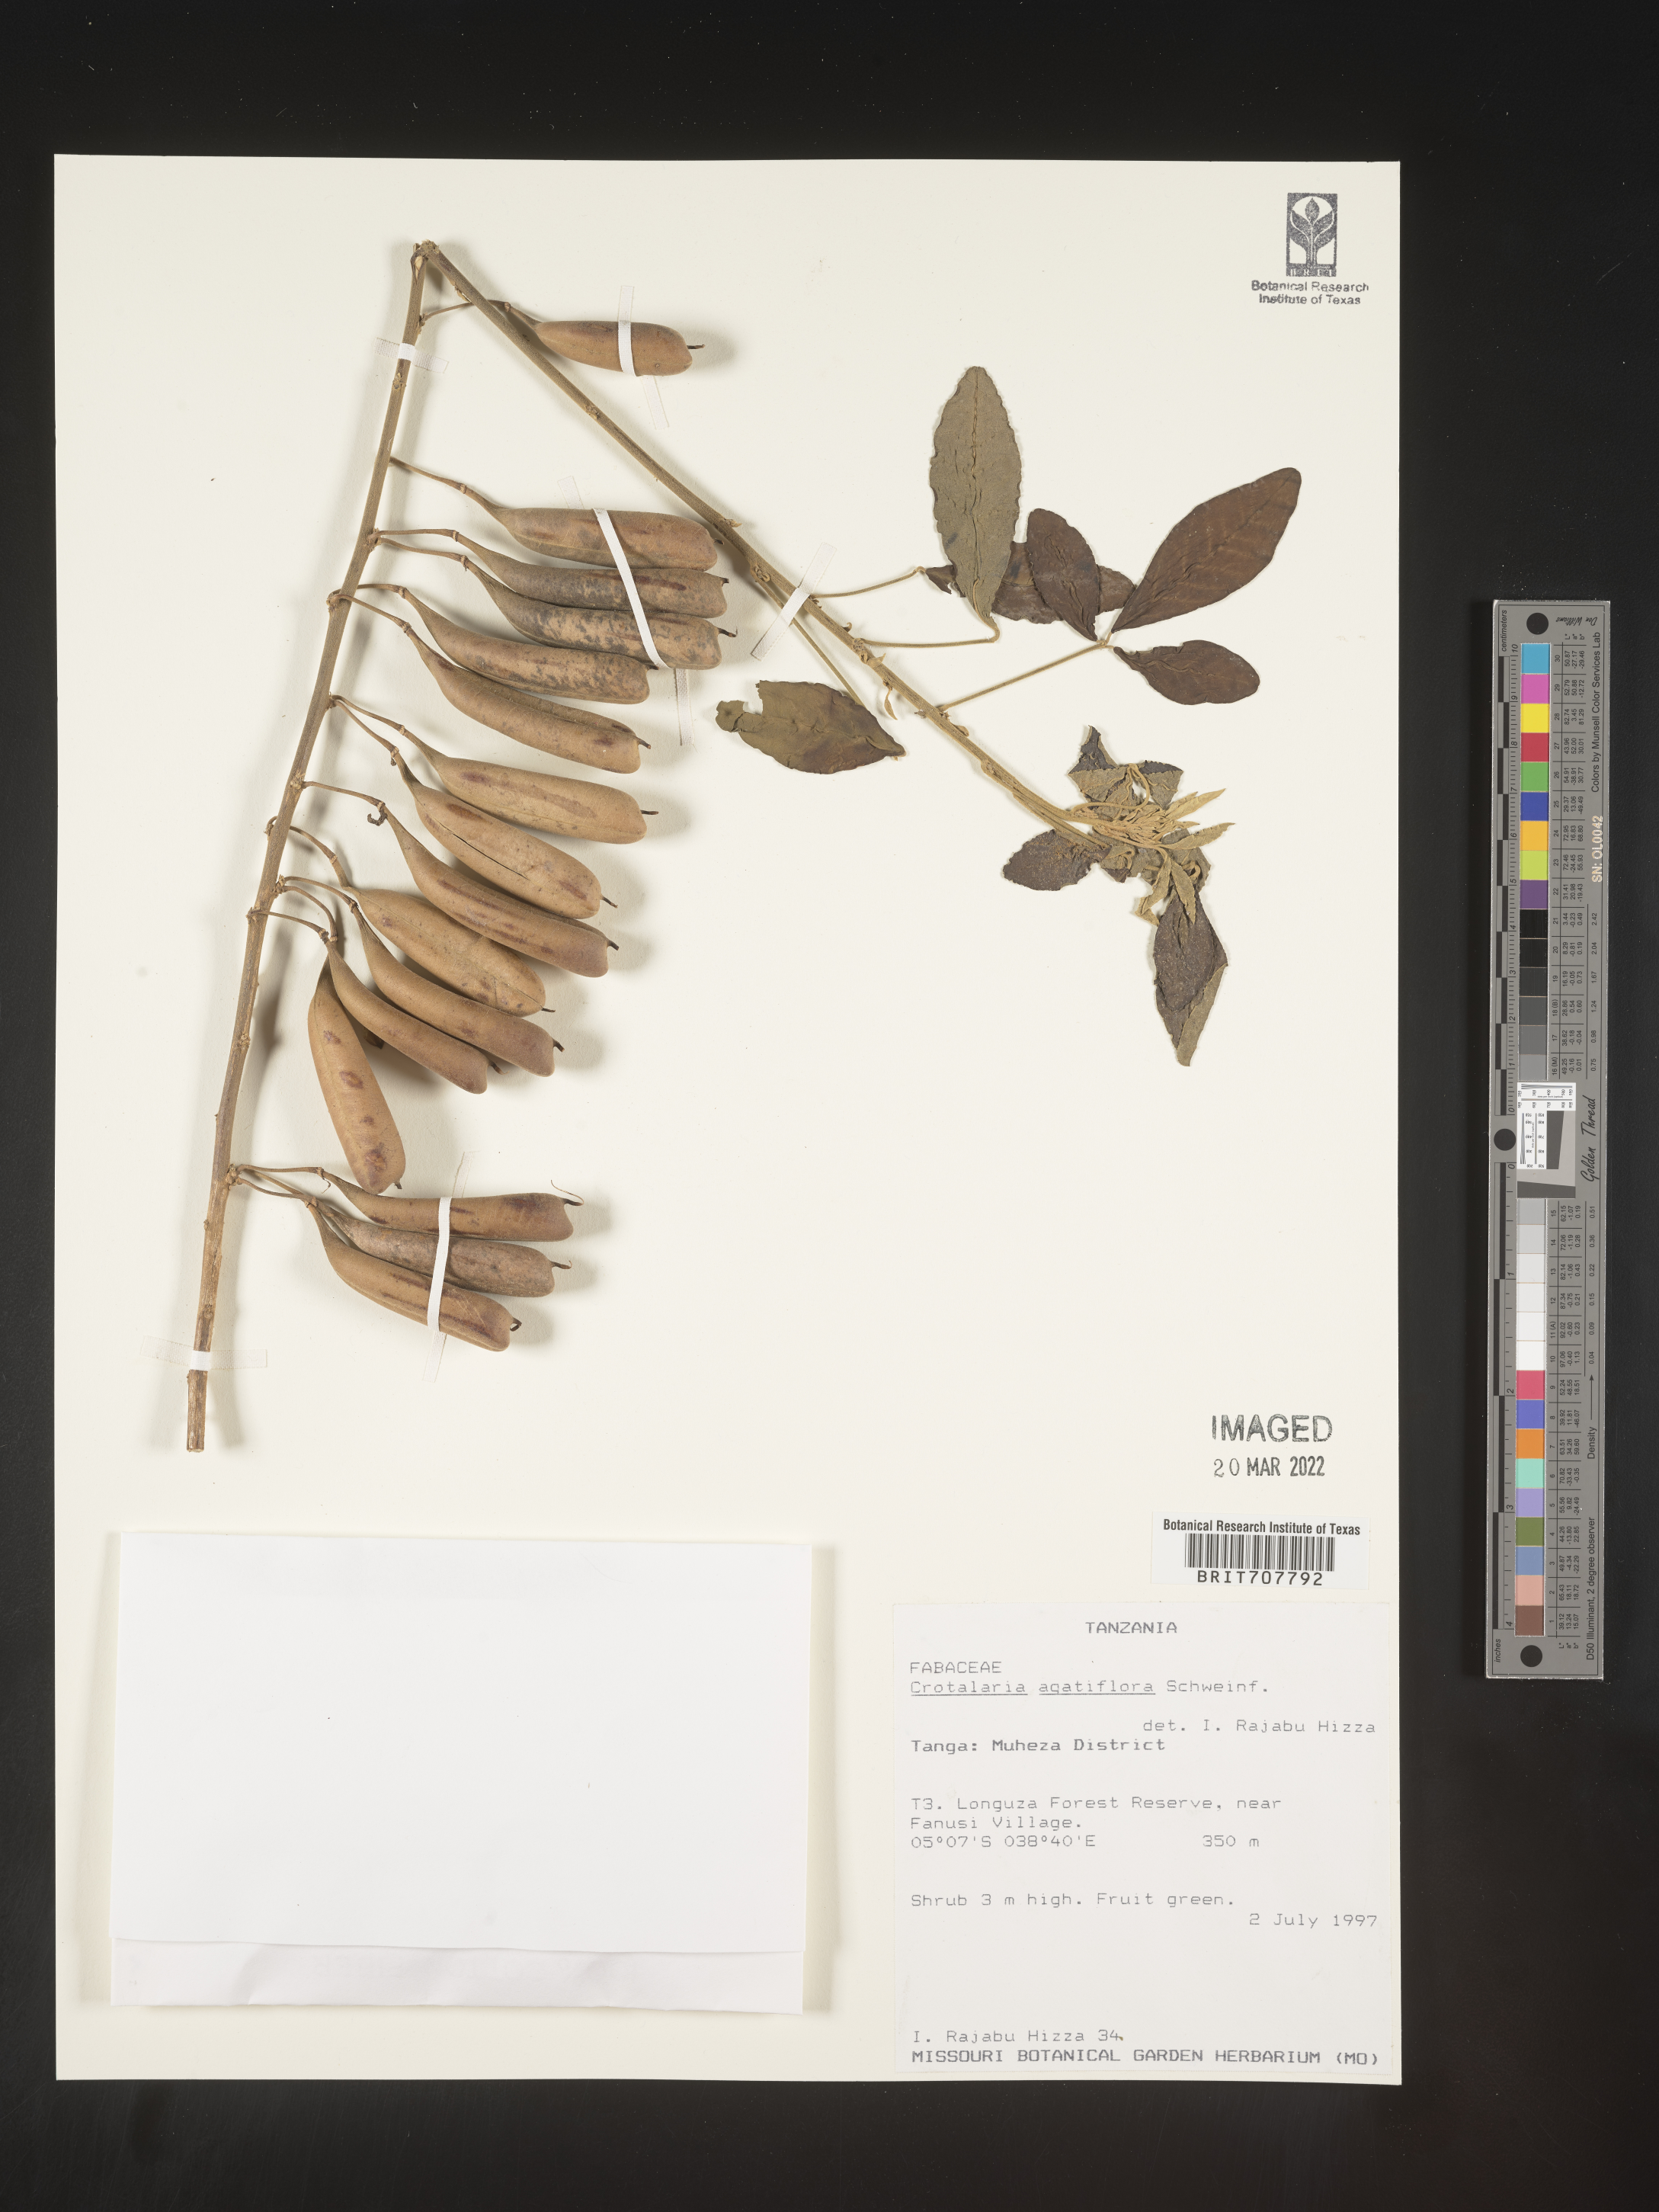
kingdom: Plantae
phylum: Tracheophyta
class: Magnoliopsida
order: Fabales
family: Fabaceae
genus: Crotalaria
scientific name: Crotalaria
